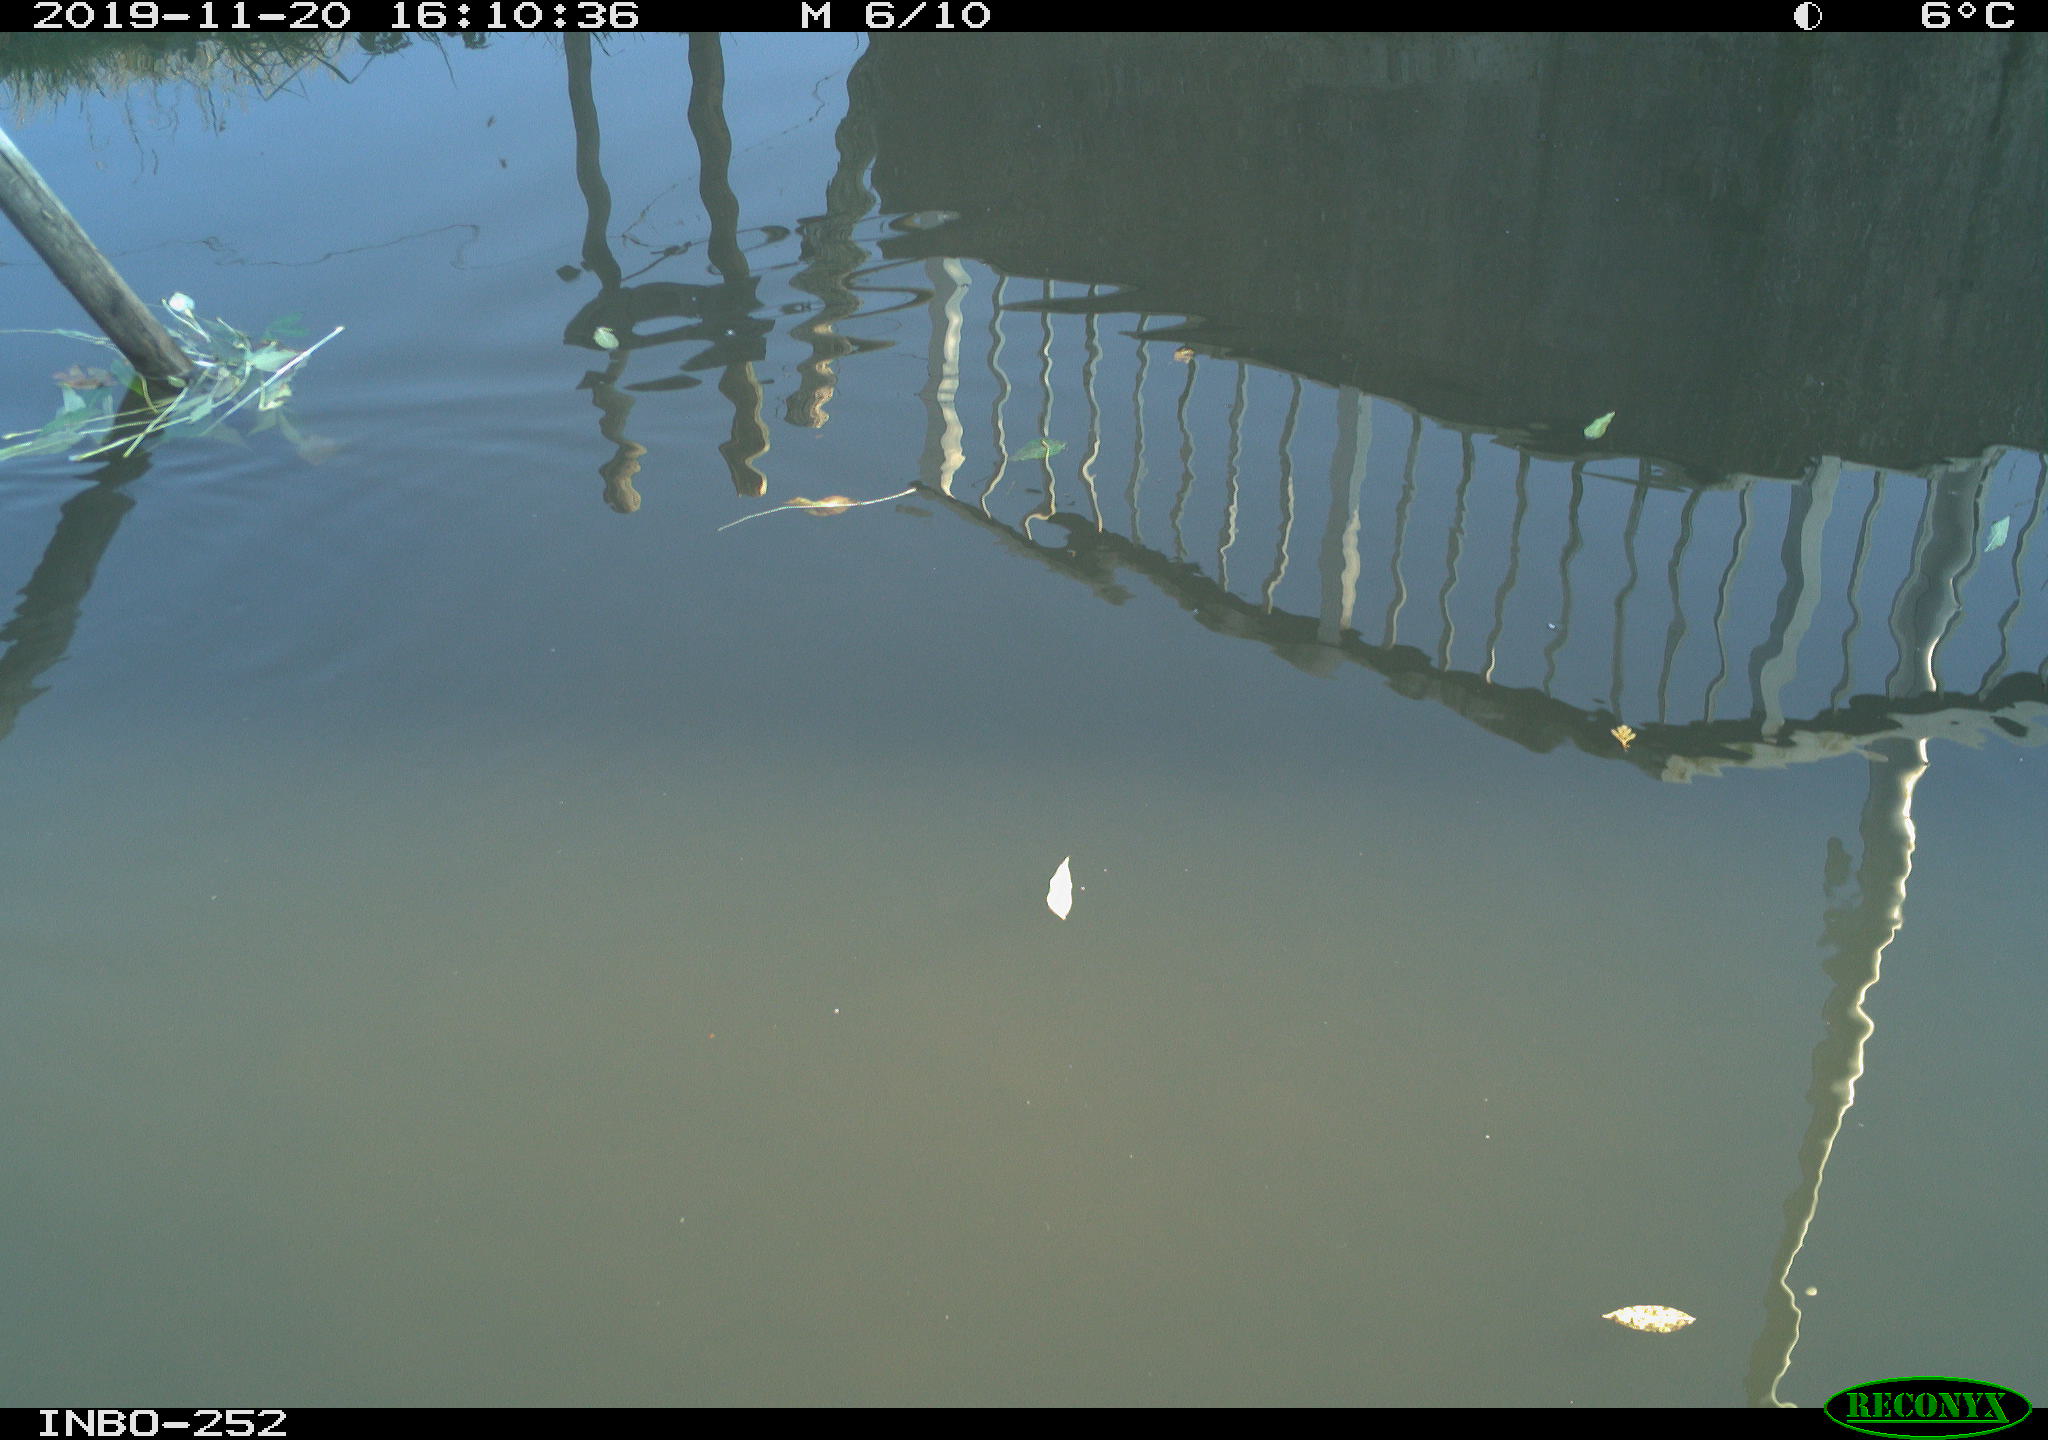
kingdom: Animalia
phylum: Chordata
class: Aves
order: Gruiformes
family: Rallidae
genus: Gallinula
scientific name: Gallinula chloropus
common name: Common moorhen
